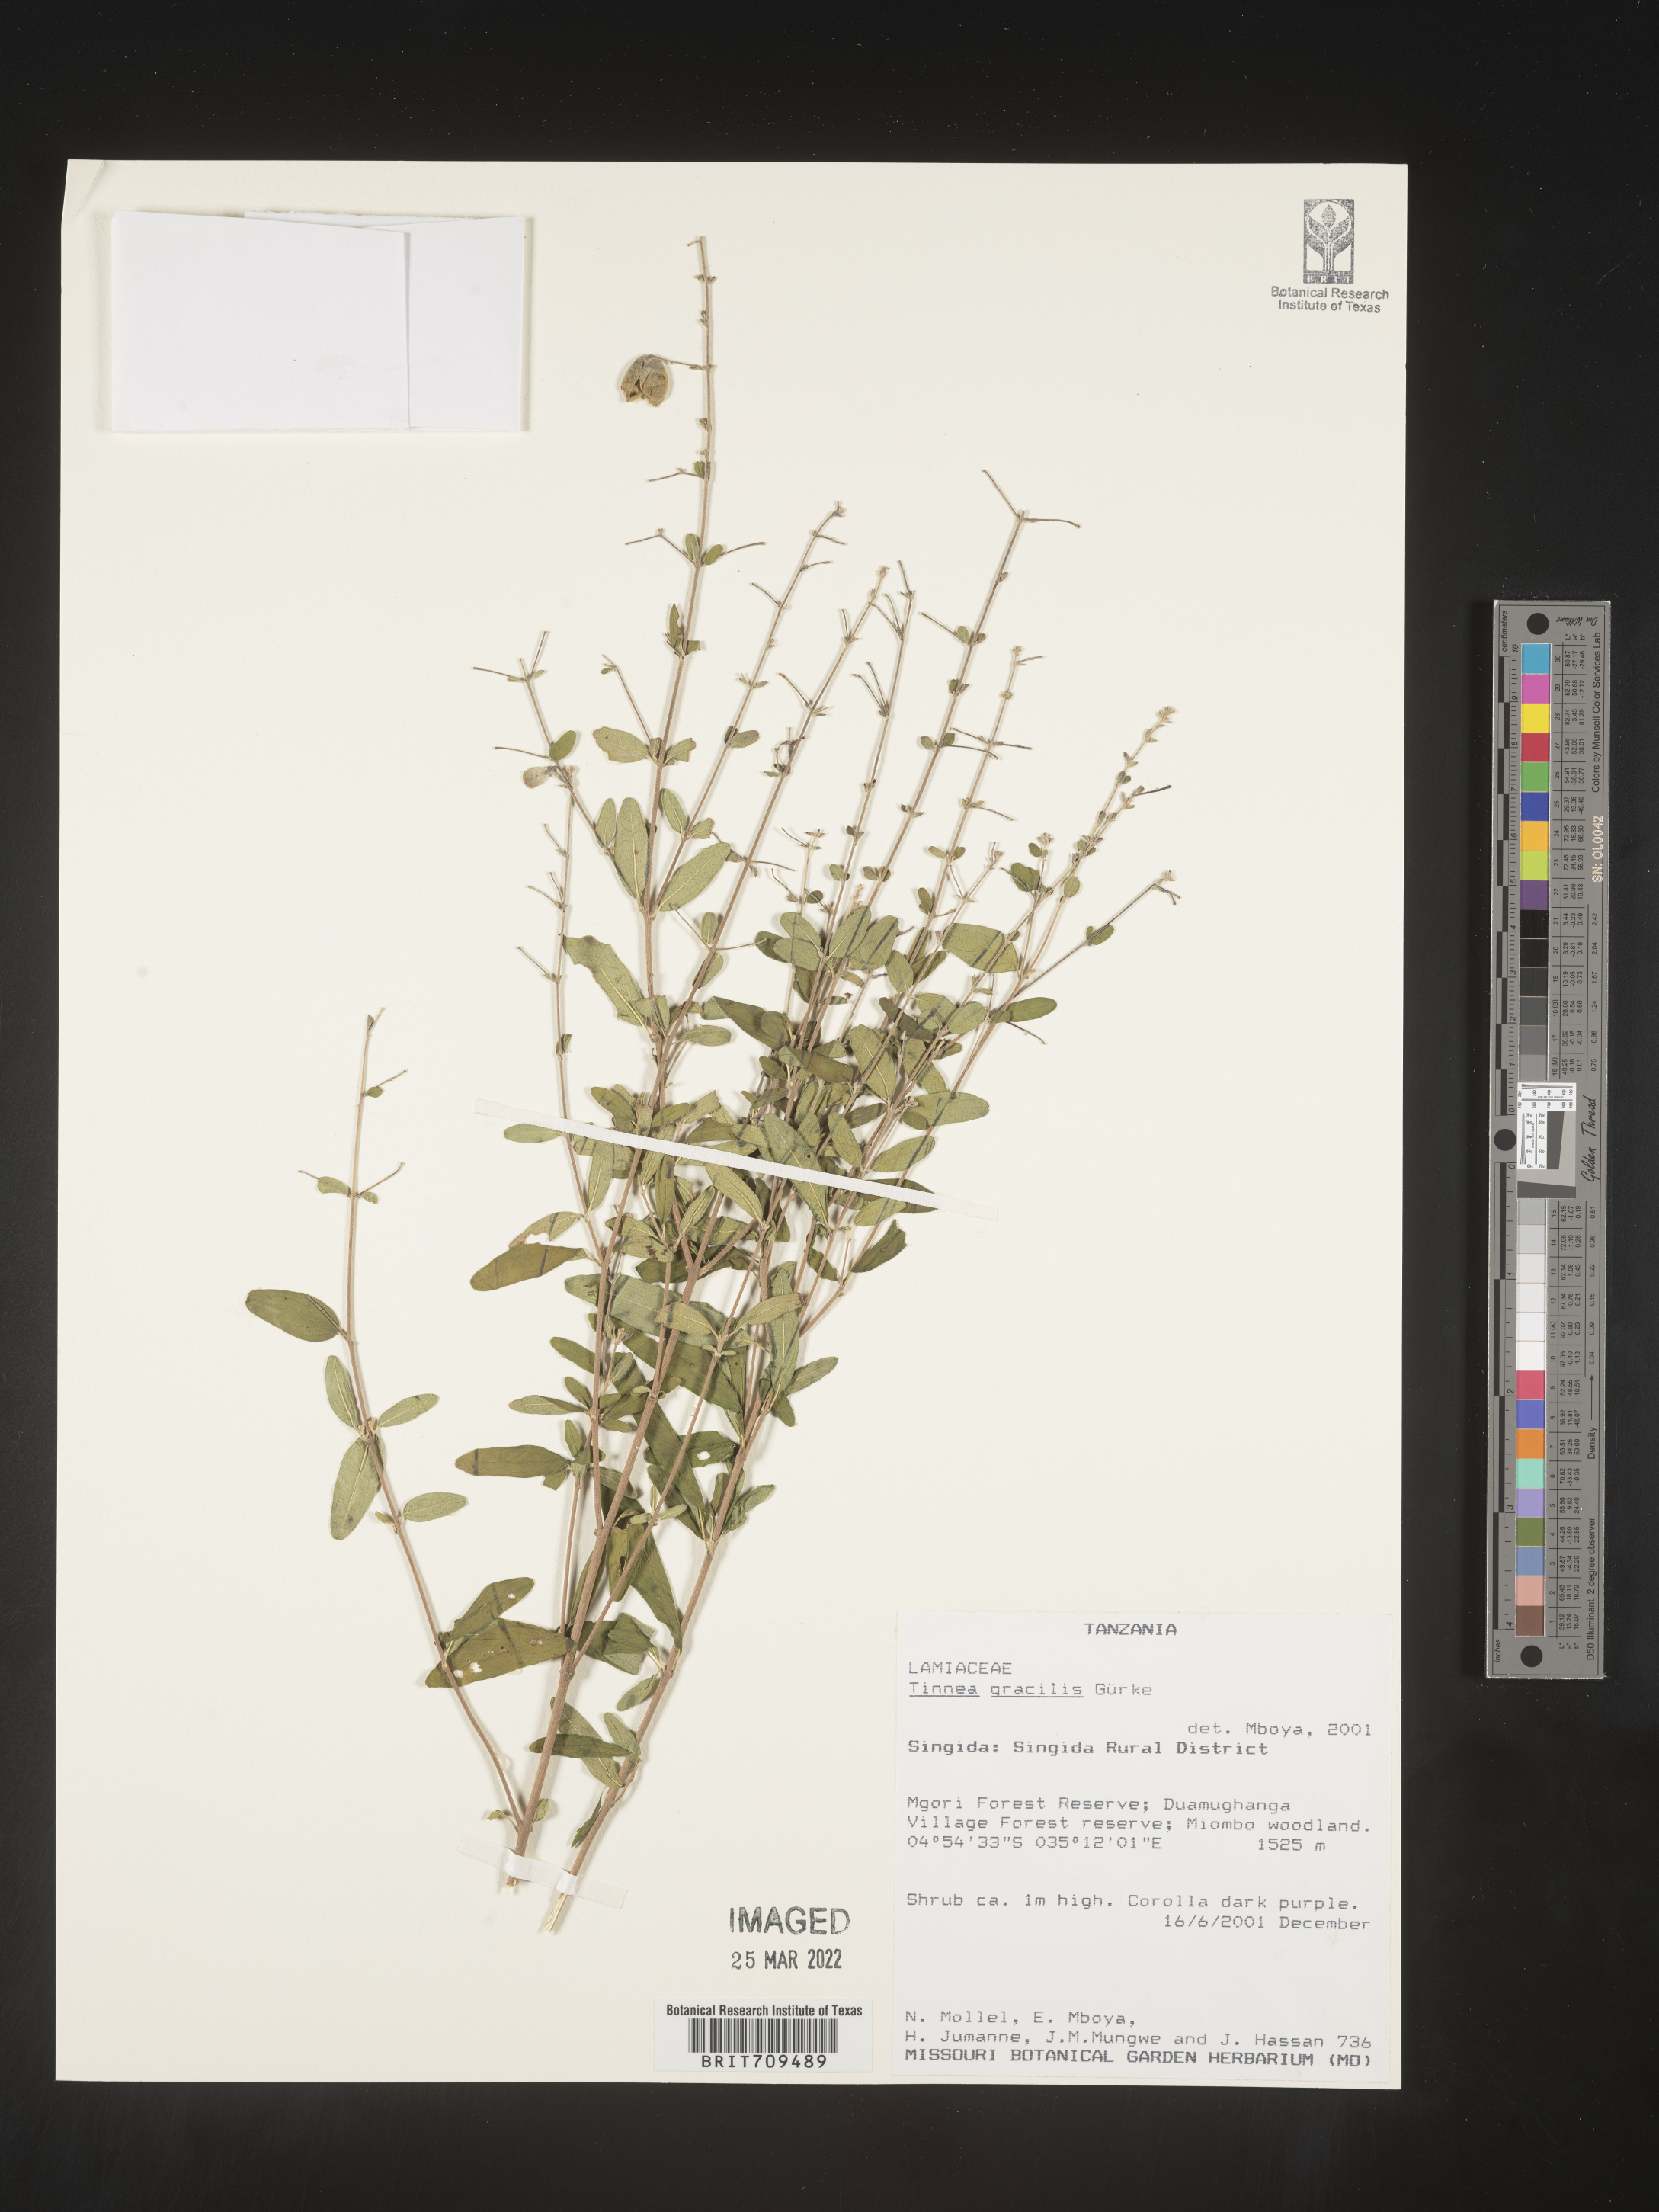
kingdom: Plantae
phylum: Tracheophyta
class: Magnoliopsida
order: Lamiales
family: Lamiaceae
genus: Tinnea
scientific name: Tinnea
